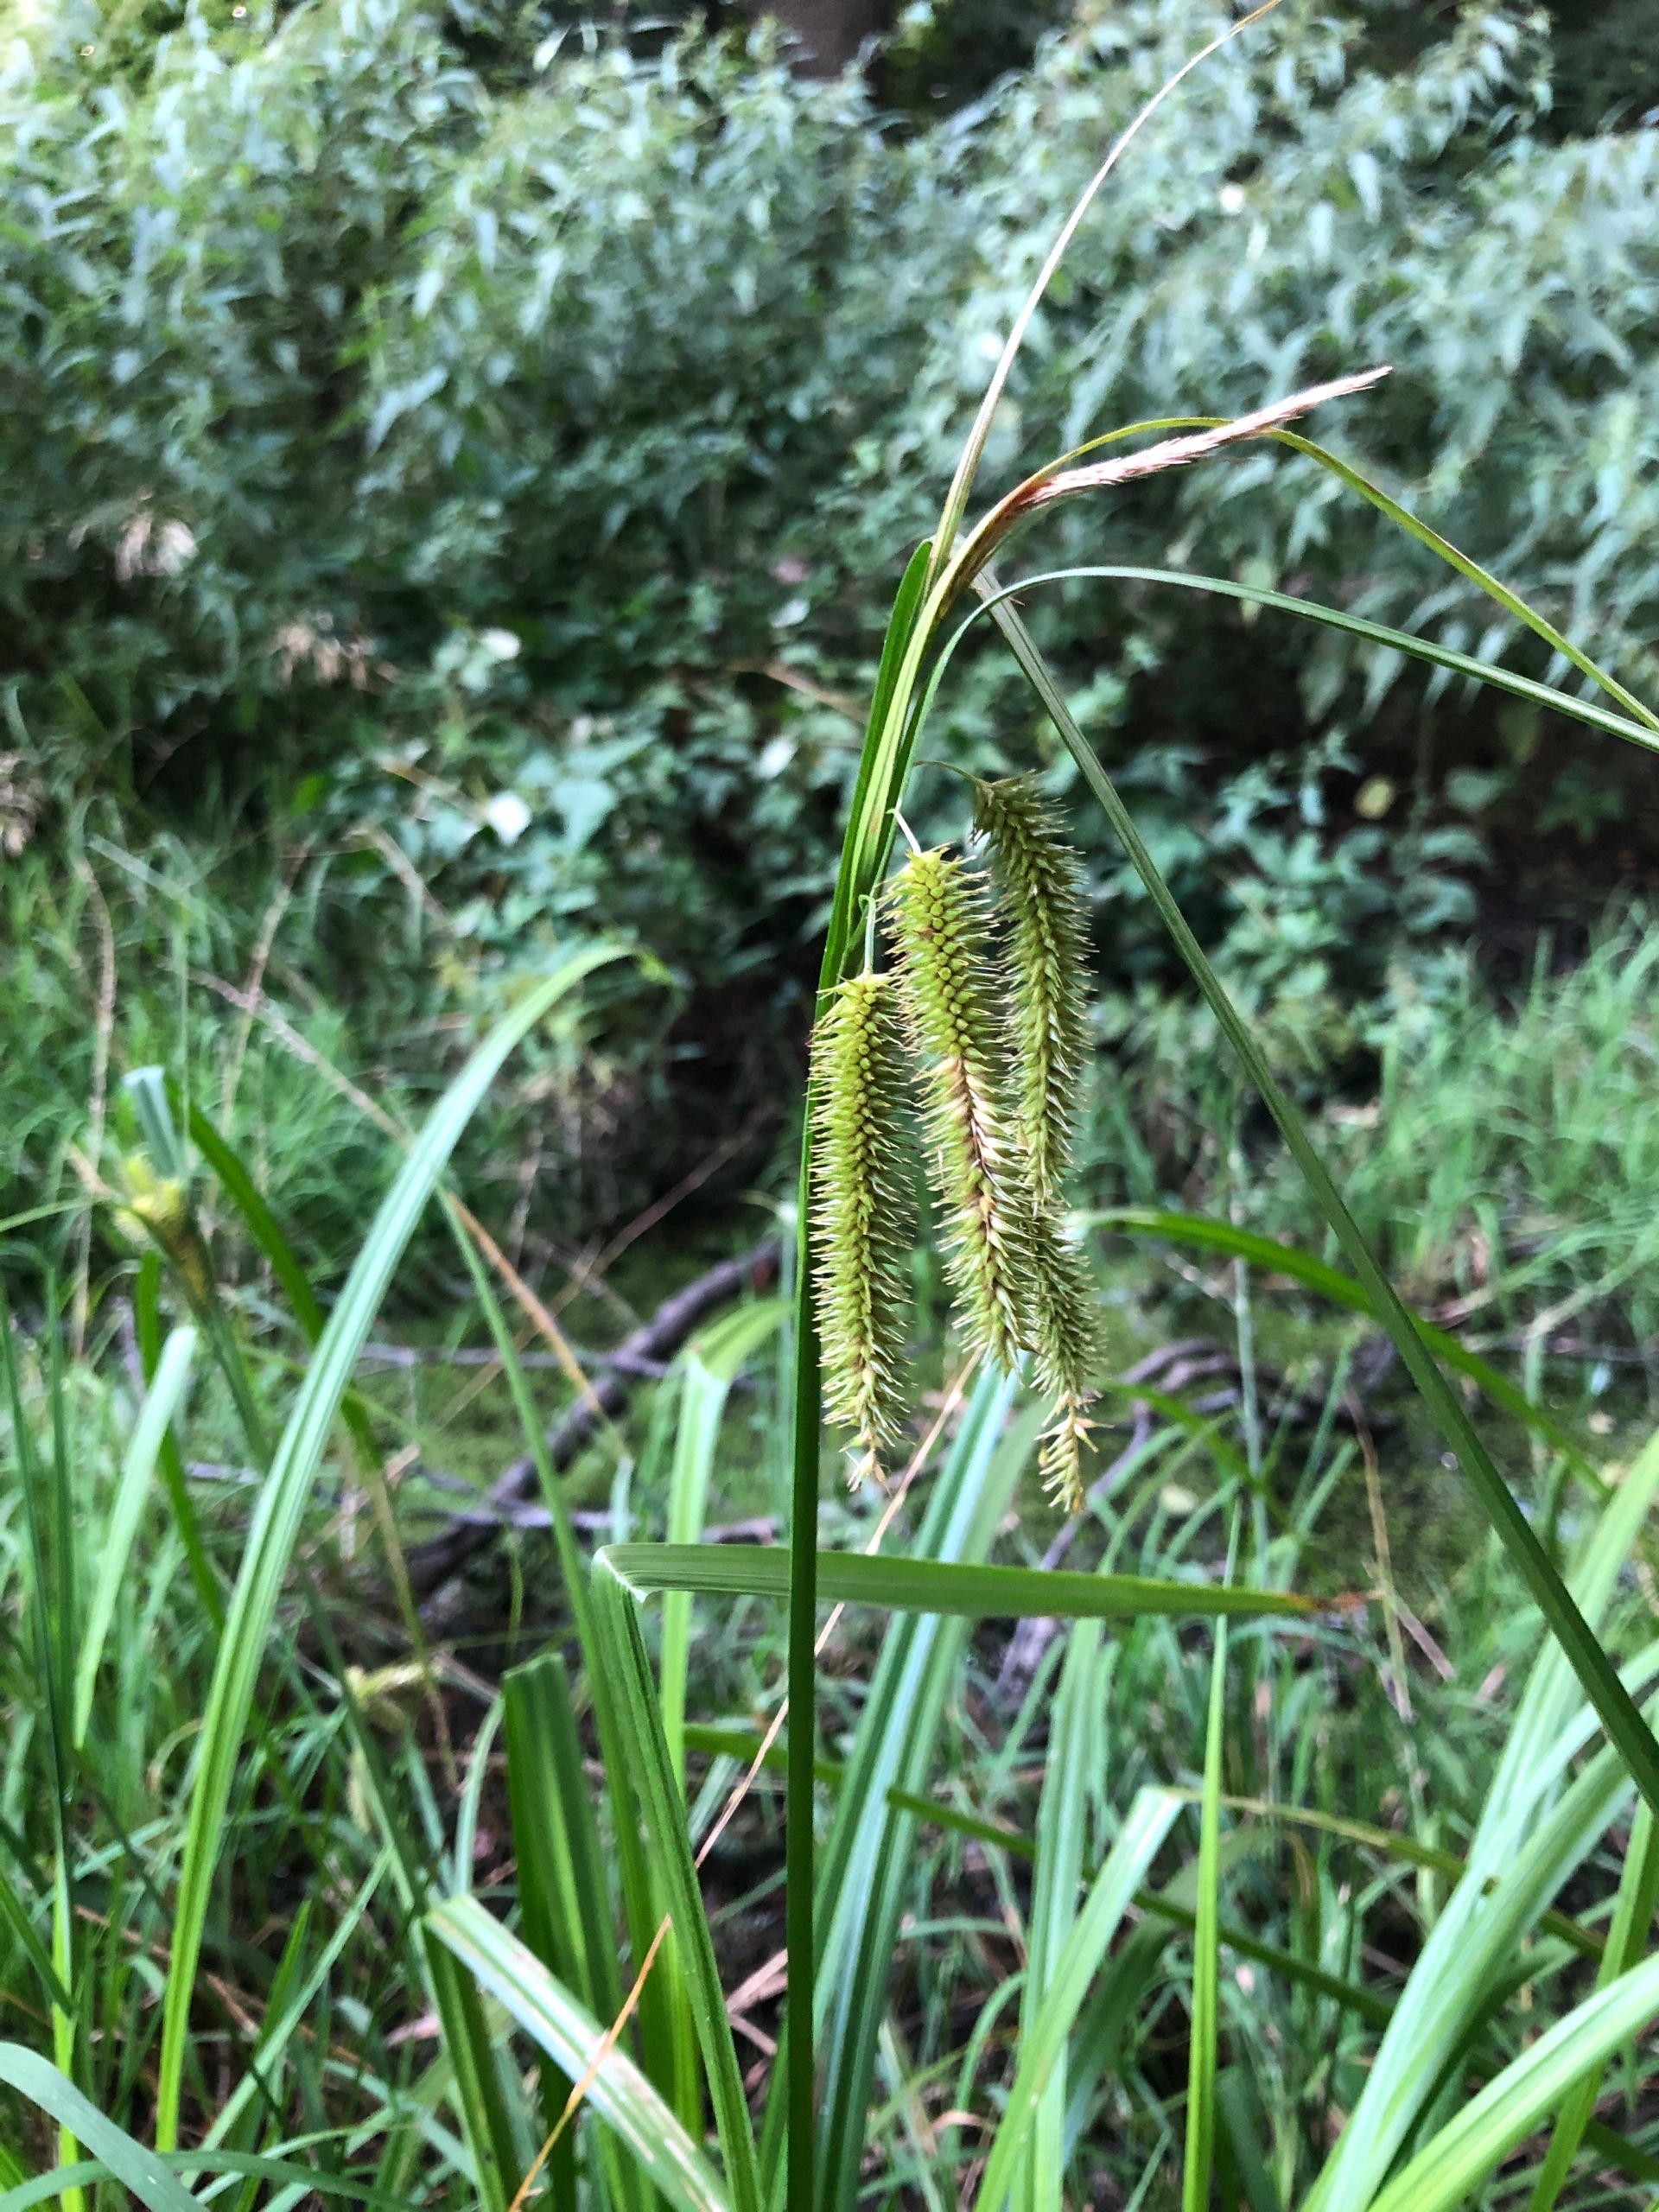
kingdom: Plantae
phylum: Tracheophyta
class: Liliopsida
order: Poales
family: Cyperaceae
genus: Carex
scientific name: Carex pseudocyperus
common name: Knippe-star
